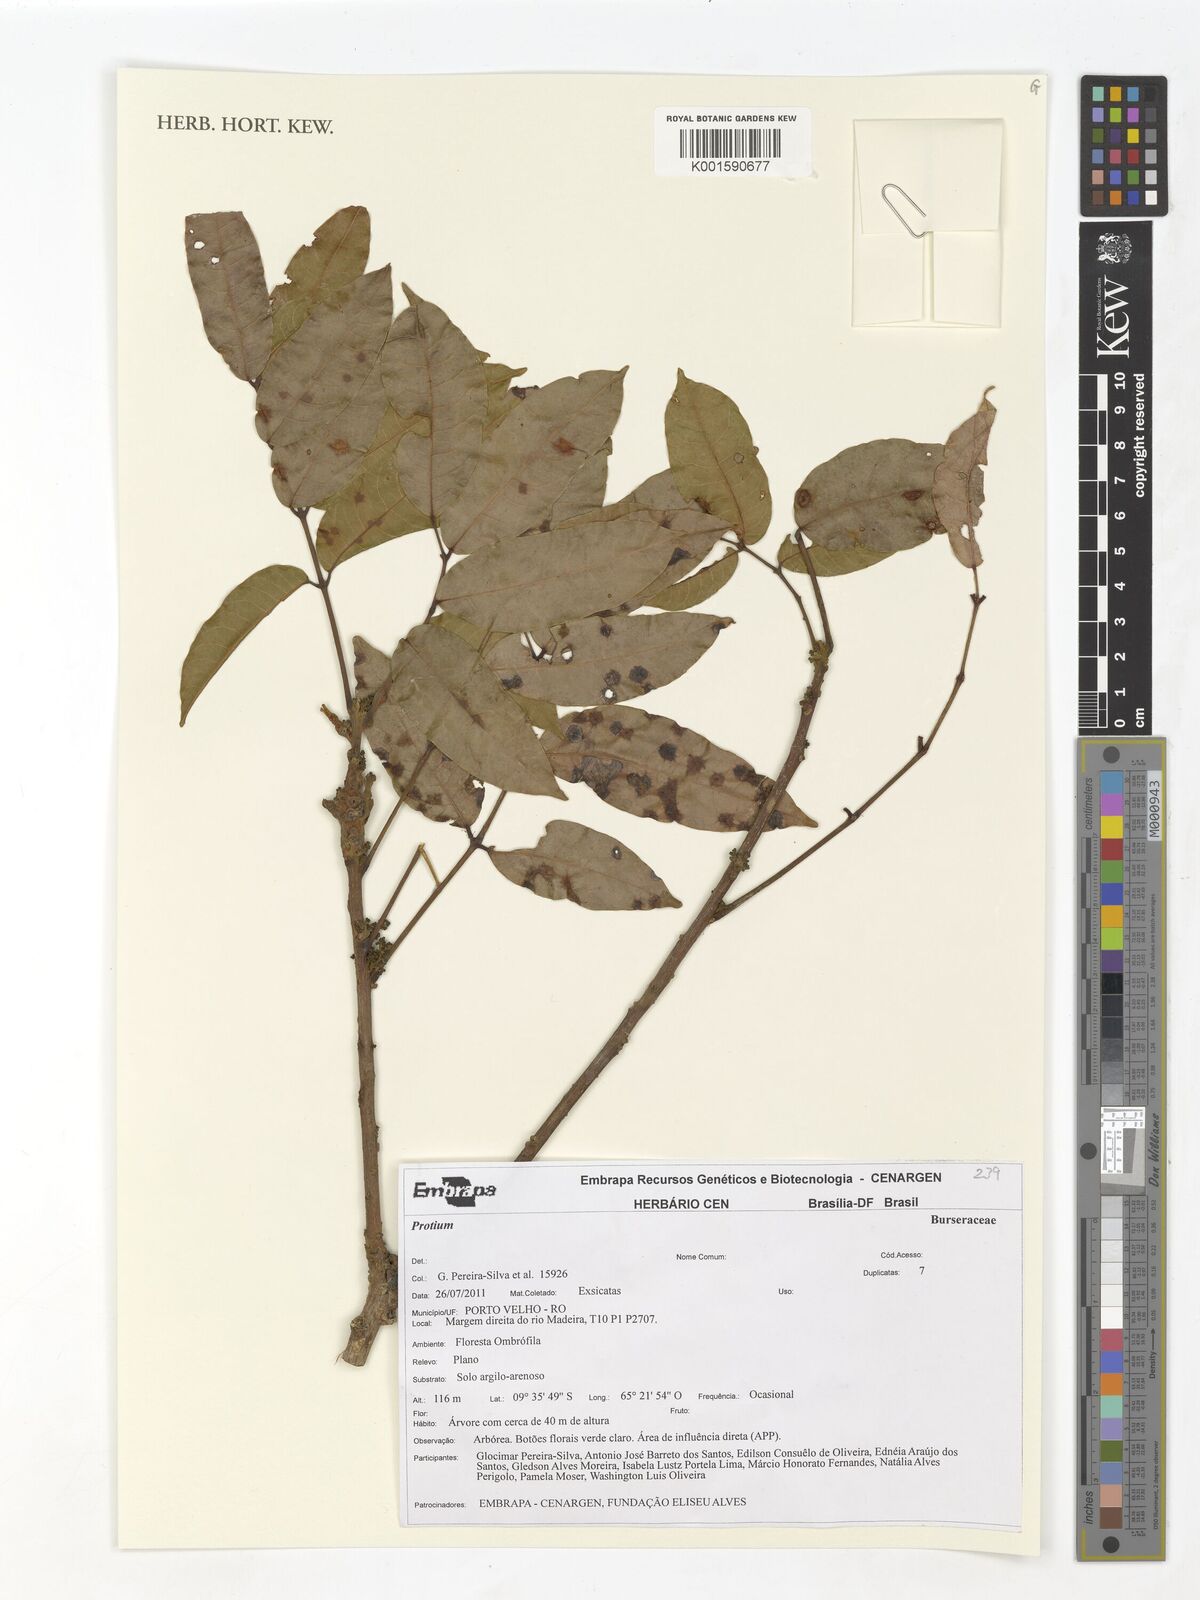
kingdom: Plantae
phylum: Tracheophyta
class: Magnoliopsida
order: Sapindales
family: Burseraceae
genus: Protium
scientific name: Protium
